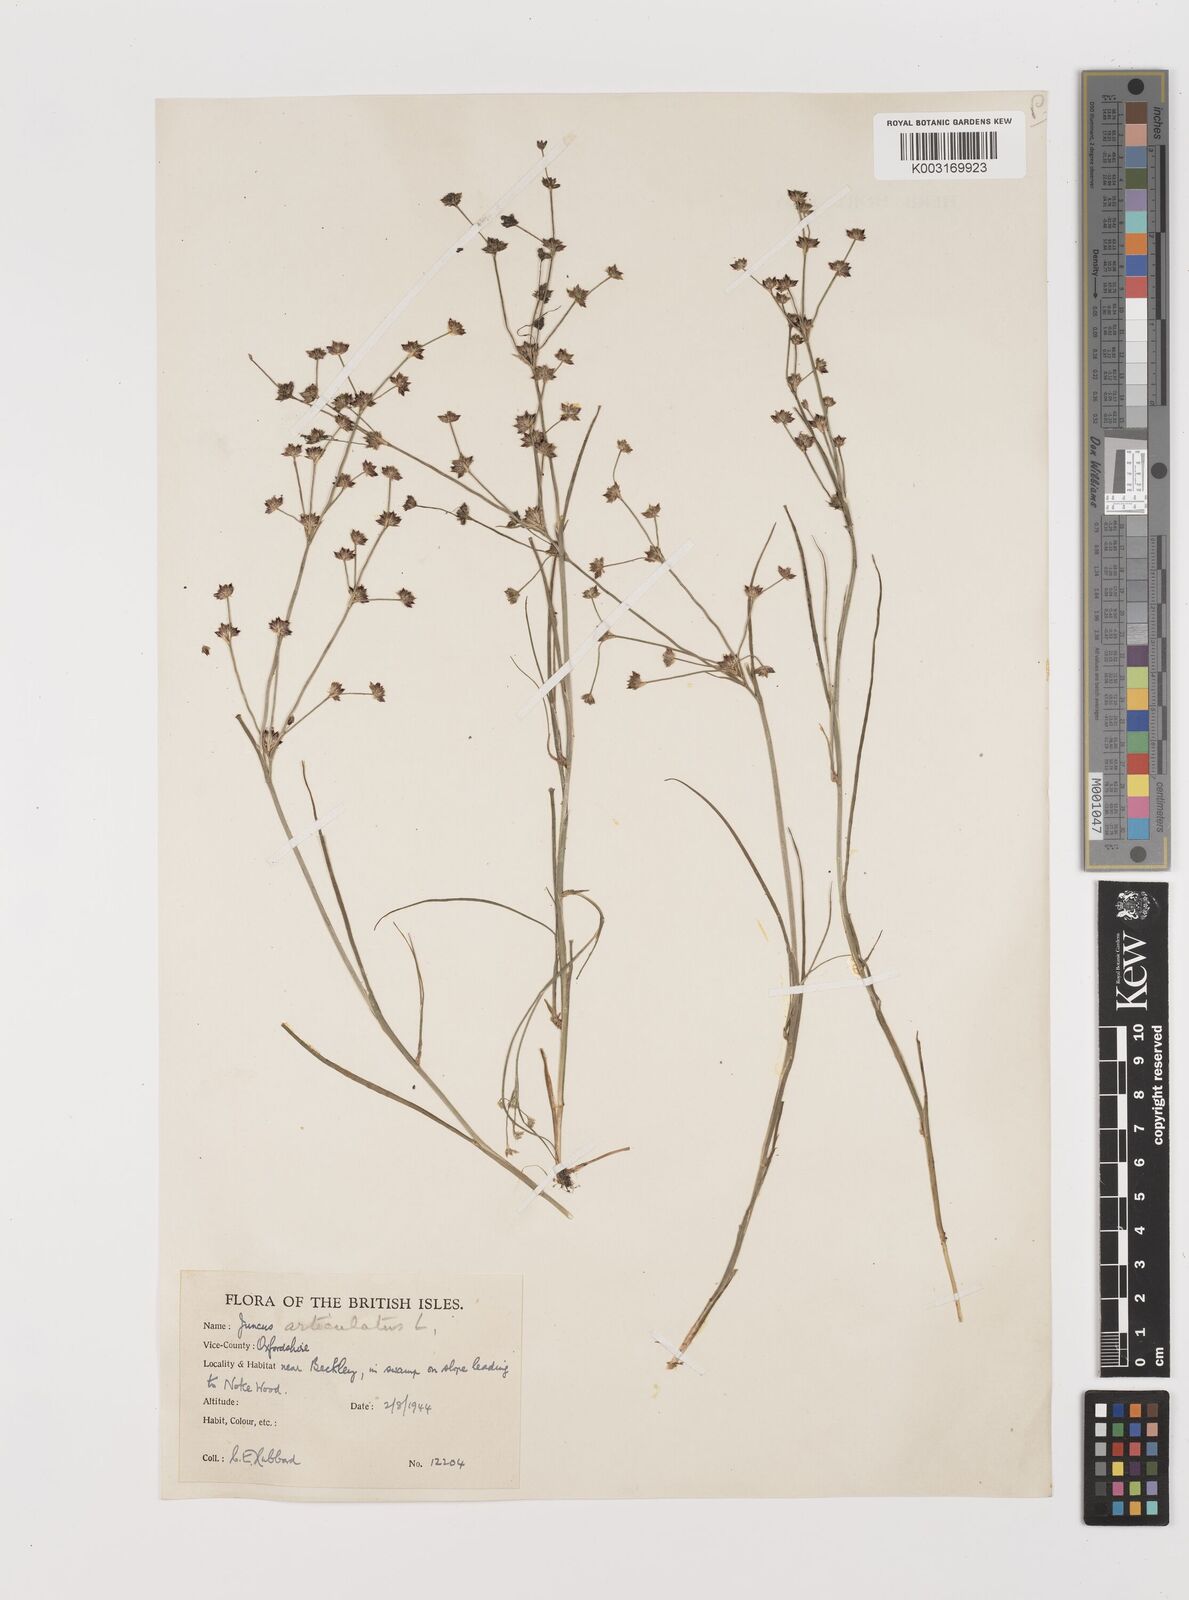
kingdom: Plantae
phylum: Tracheophyta
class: Liliopsida
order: Poales
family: Juncaceae
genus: Juncus
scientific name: Juncus articulatus
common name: Jointed rush
